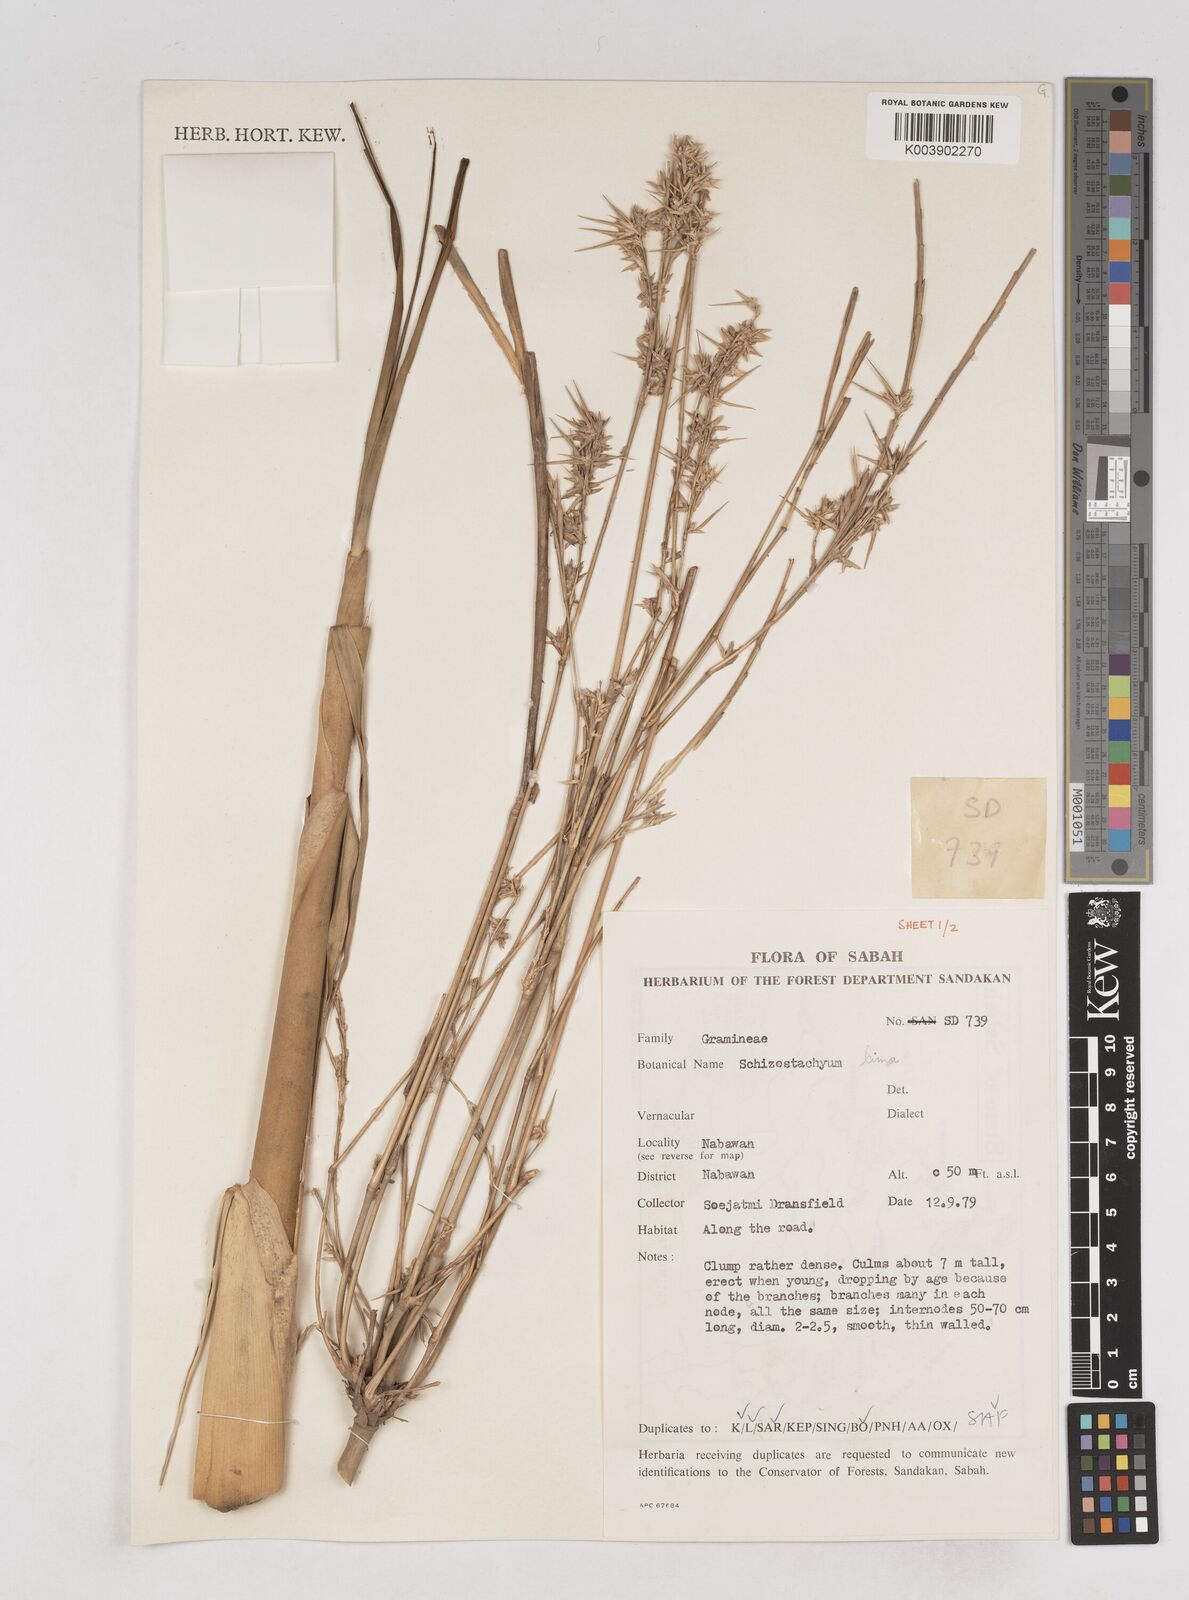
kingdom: Plantae
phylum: Tracheophyta
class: Liliopsida
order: Poales
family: Poaceae
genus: Schizostachyum
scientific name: Schizostachyum lima
